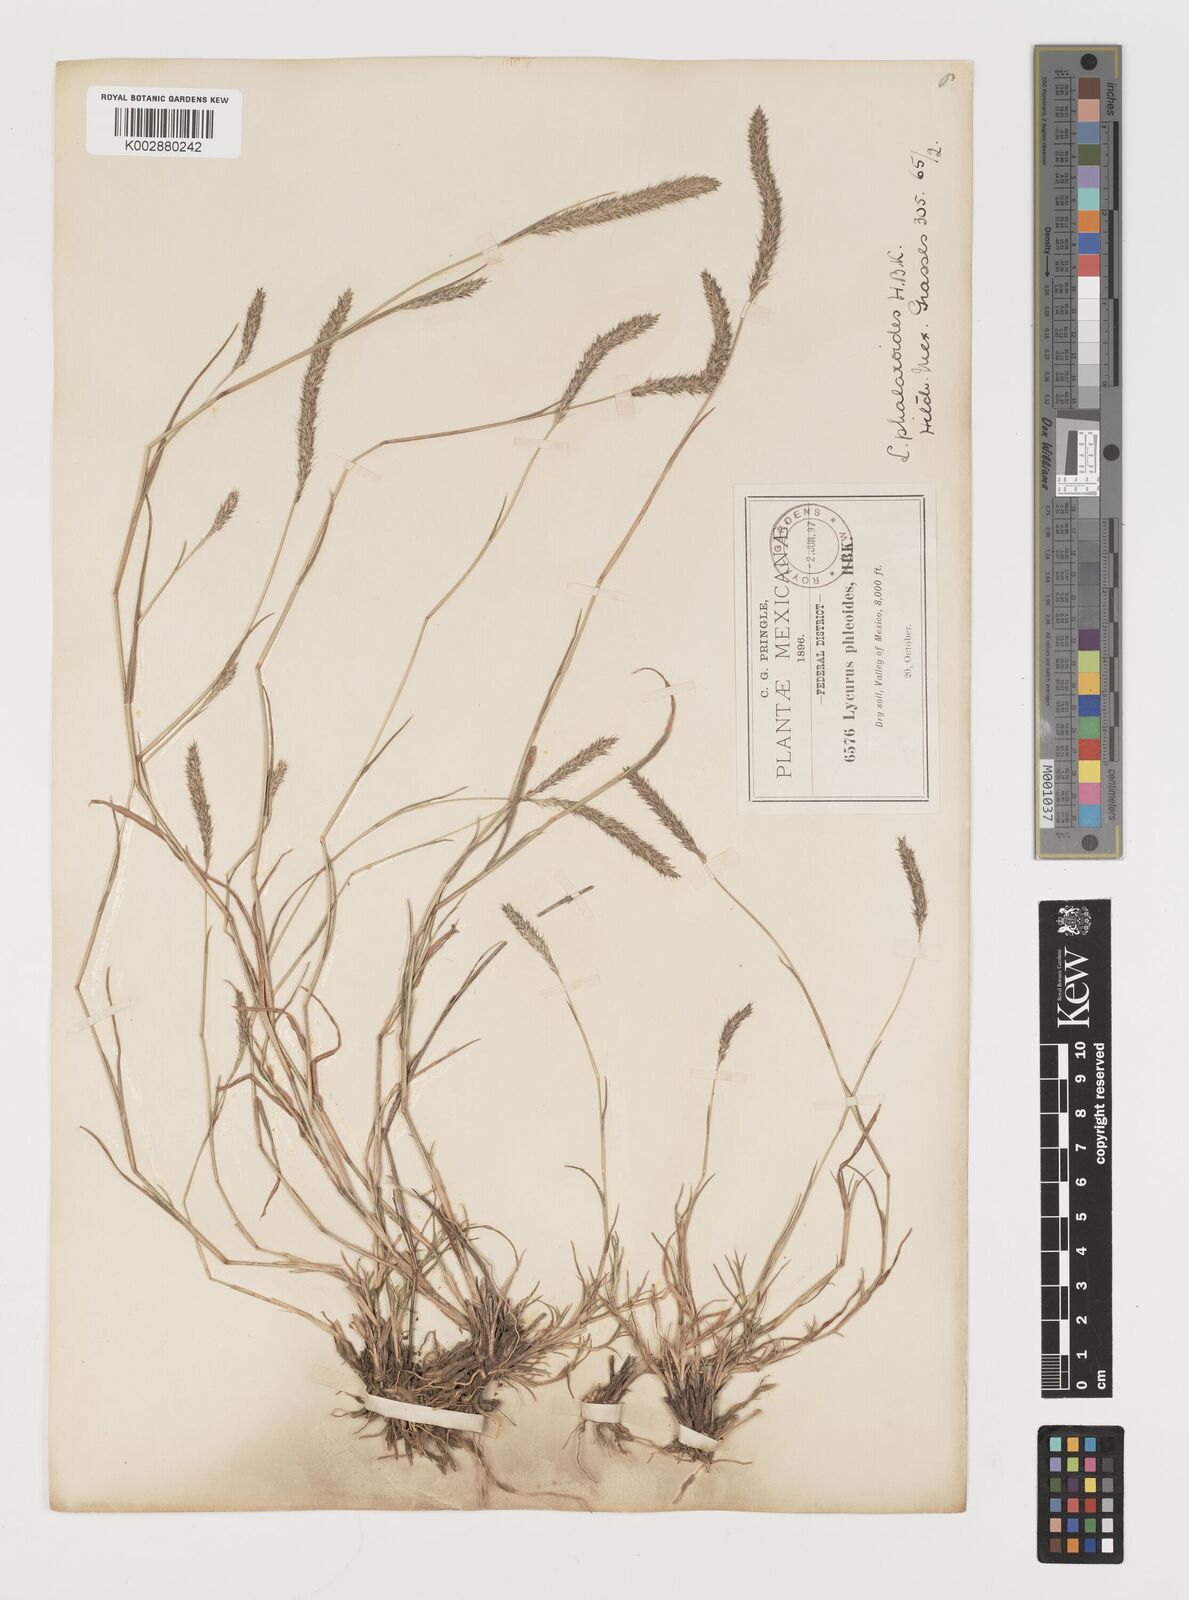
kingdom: Plantae
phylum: Tracheophyta
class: Liliopsida
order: Poales
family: Poaceae
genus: Muhlenbergia
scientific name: Muhlenbergia phalaroides
